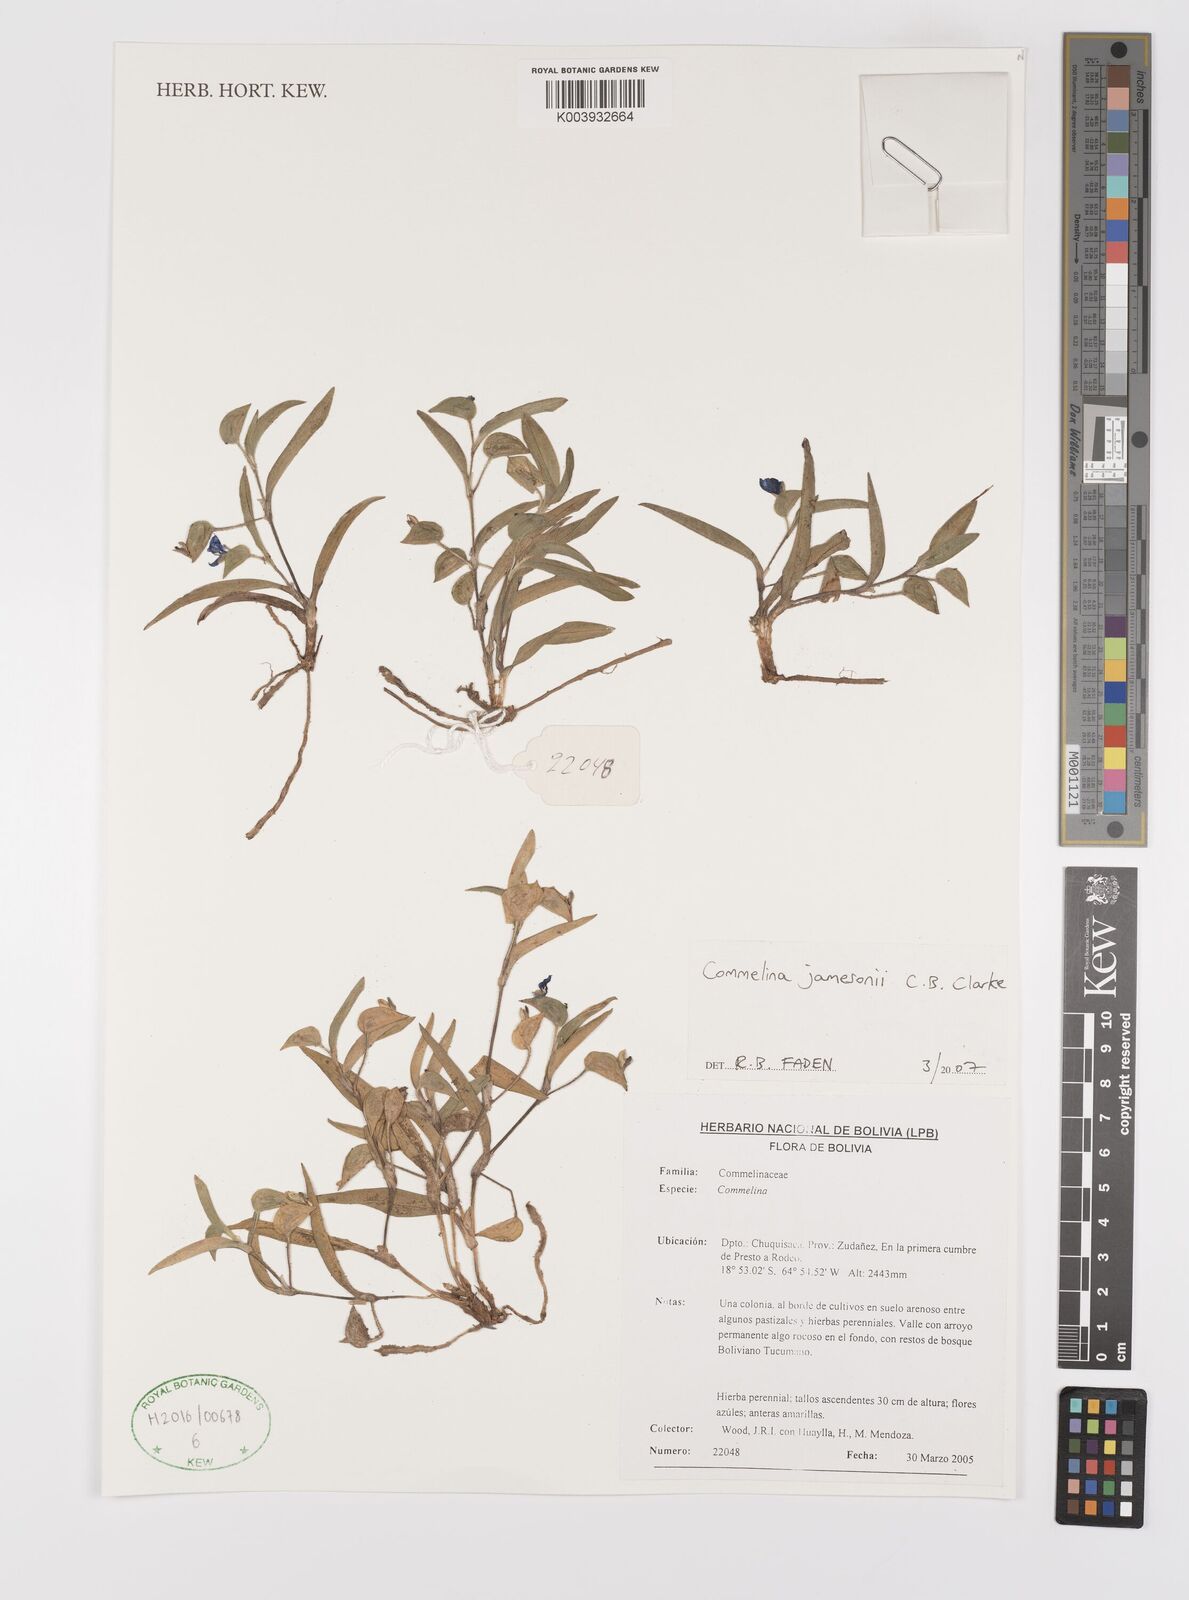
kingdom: Plantae
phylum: Tracheophyta
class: Liliopsida
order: Commelinales
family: Commelinaceae
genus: Commelina
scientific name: Commelina jamesonii
